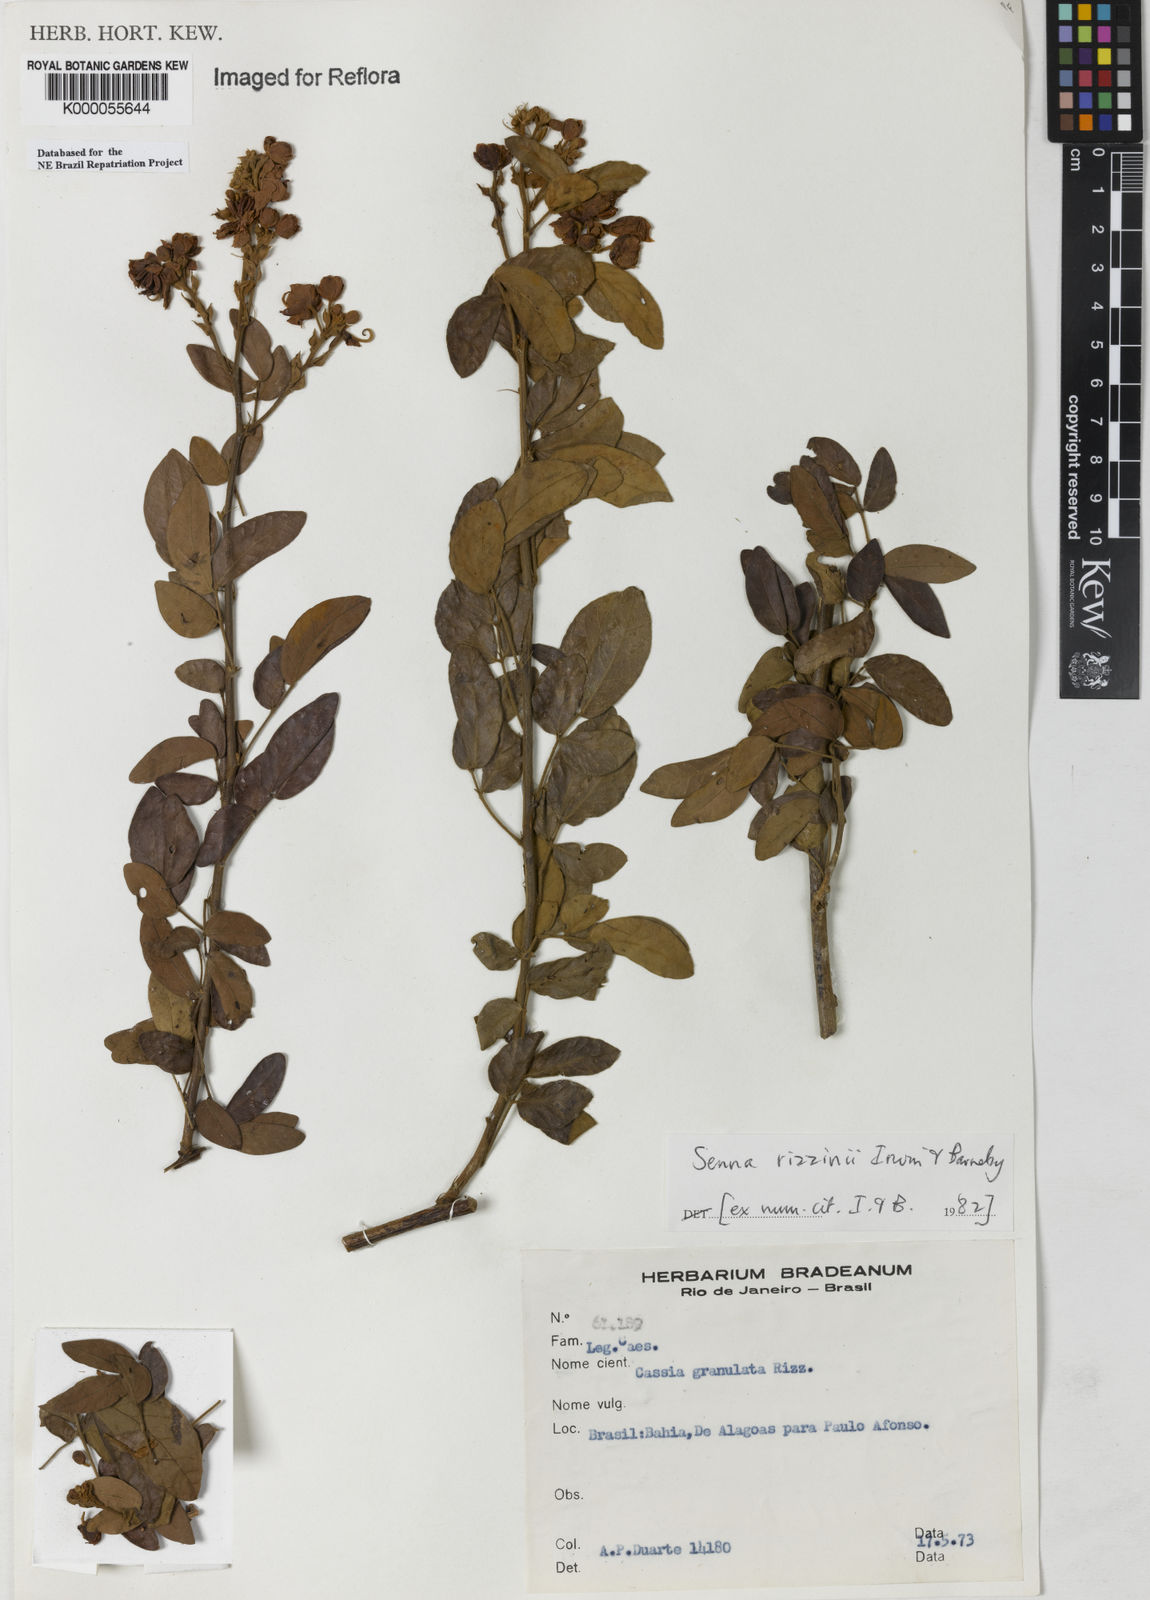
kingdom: Plantae
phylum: Tracheophyta
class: Magnoliopsida
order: Fabales
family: Fabaceae
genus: Senna
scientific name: Senna rizzinii
